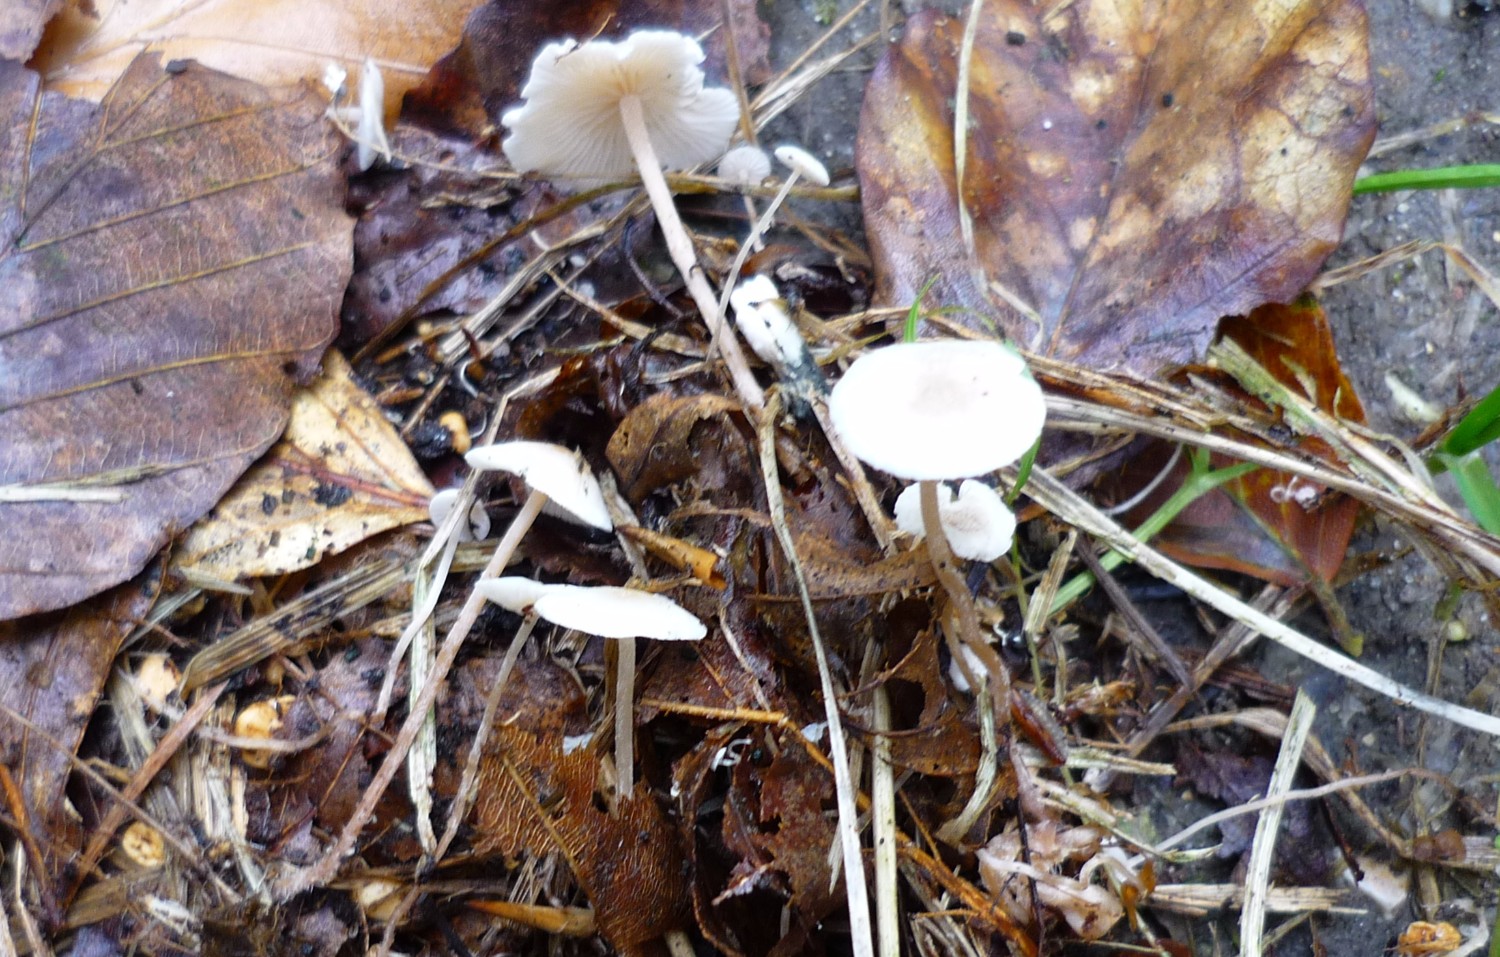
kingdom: Fungi
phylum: Basidiomycota
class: Agaricomycetes
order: Agaricales
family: Tricholomataceae
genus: Collybia
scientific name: Collybia cookei
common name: gulknoldet lighat
